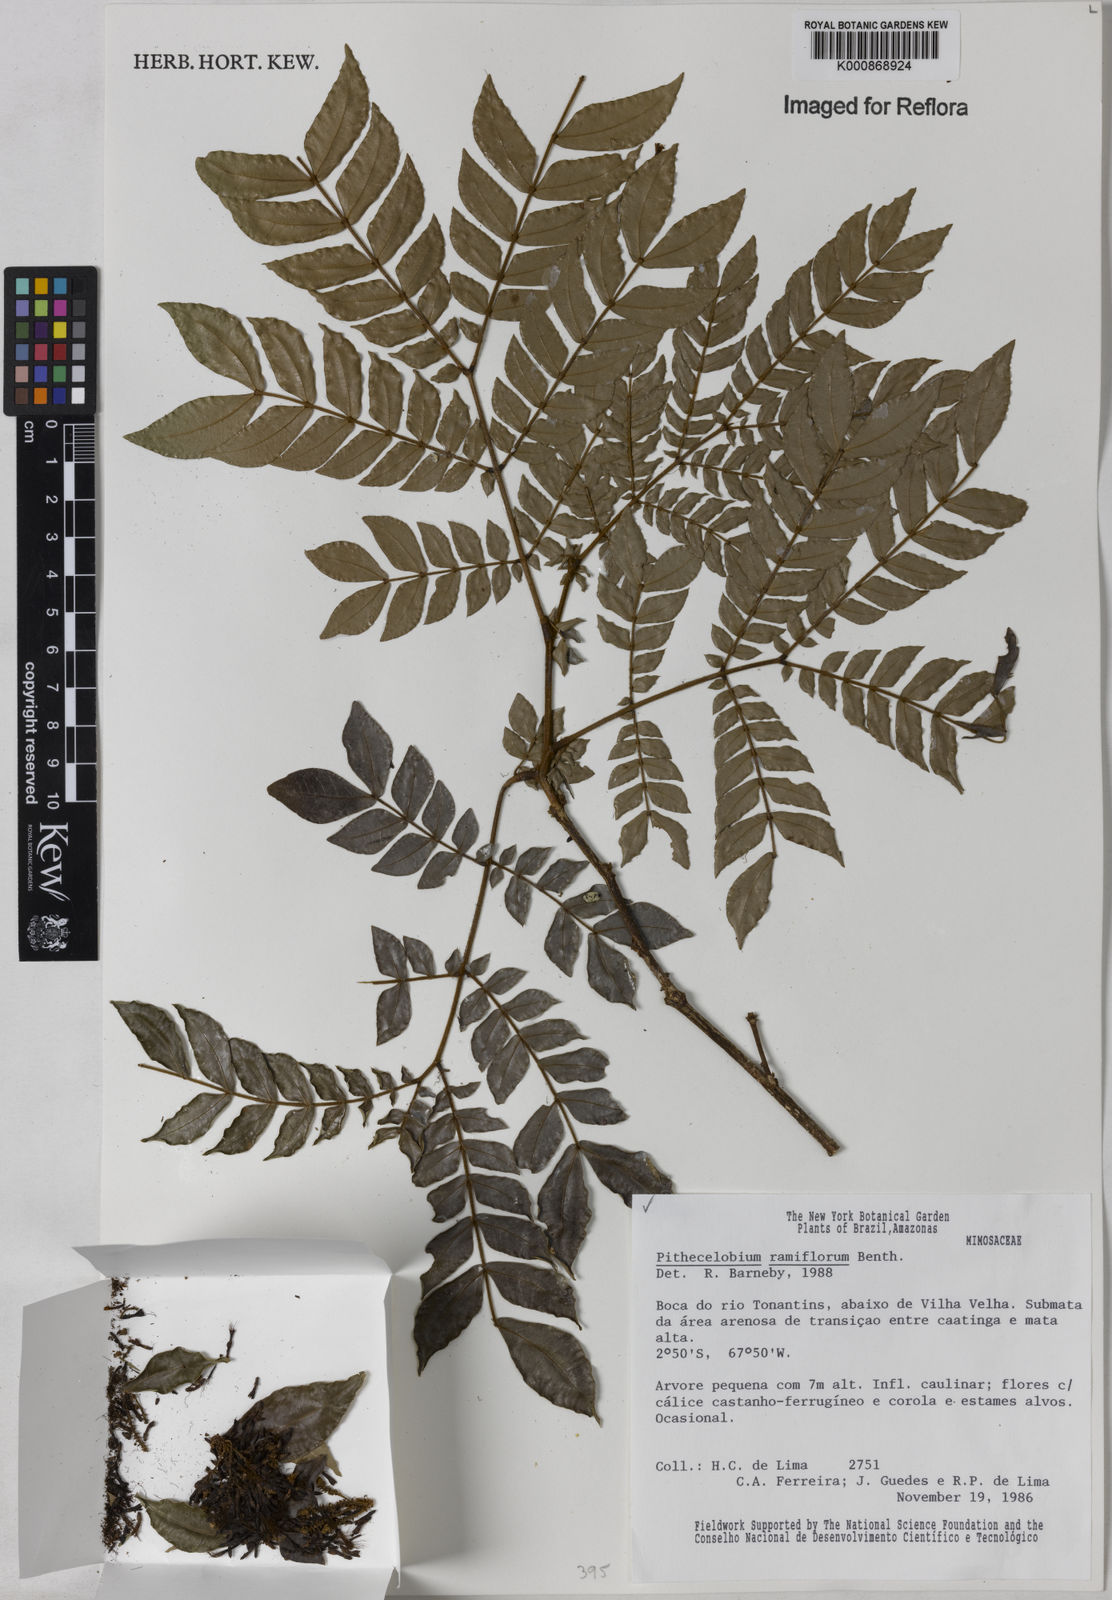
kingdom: Plantae
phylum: Tracheophyta
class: Magnoliopsida
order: Fabales
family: Fabaceae
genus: Zygia
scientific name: Zygia dinizii
